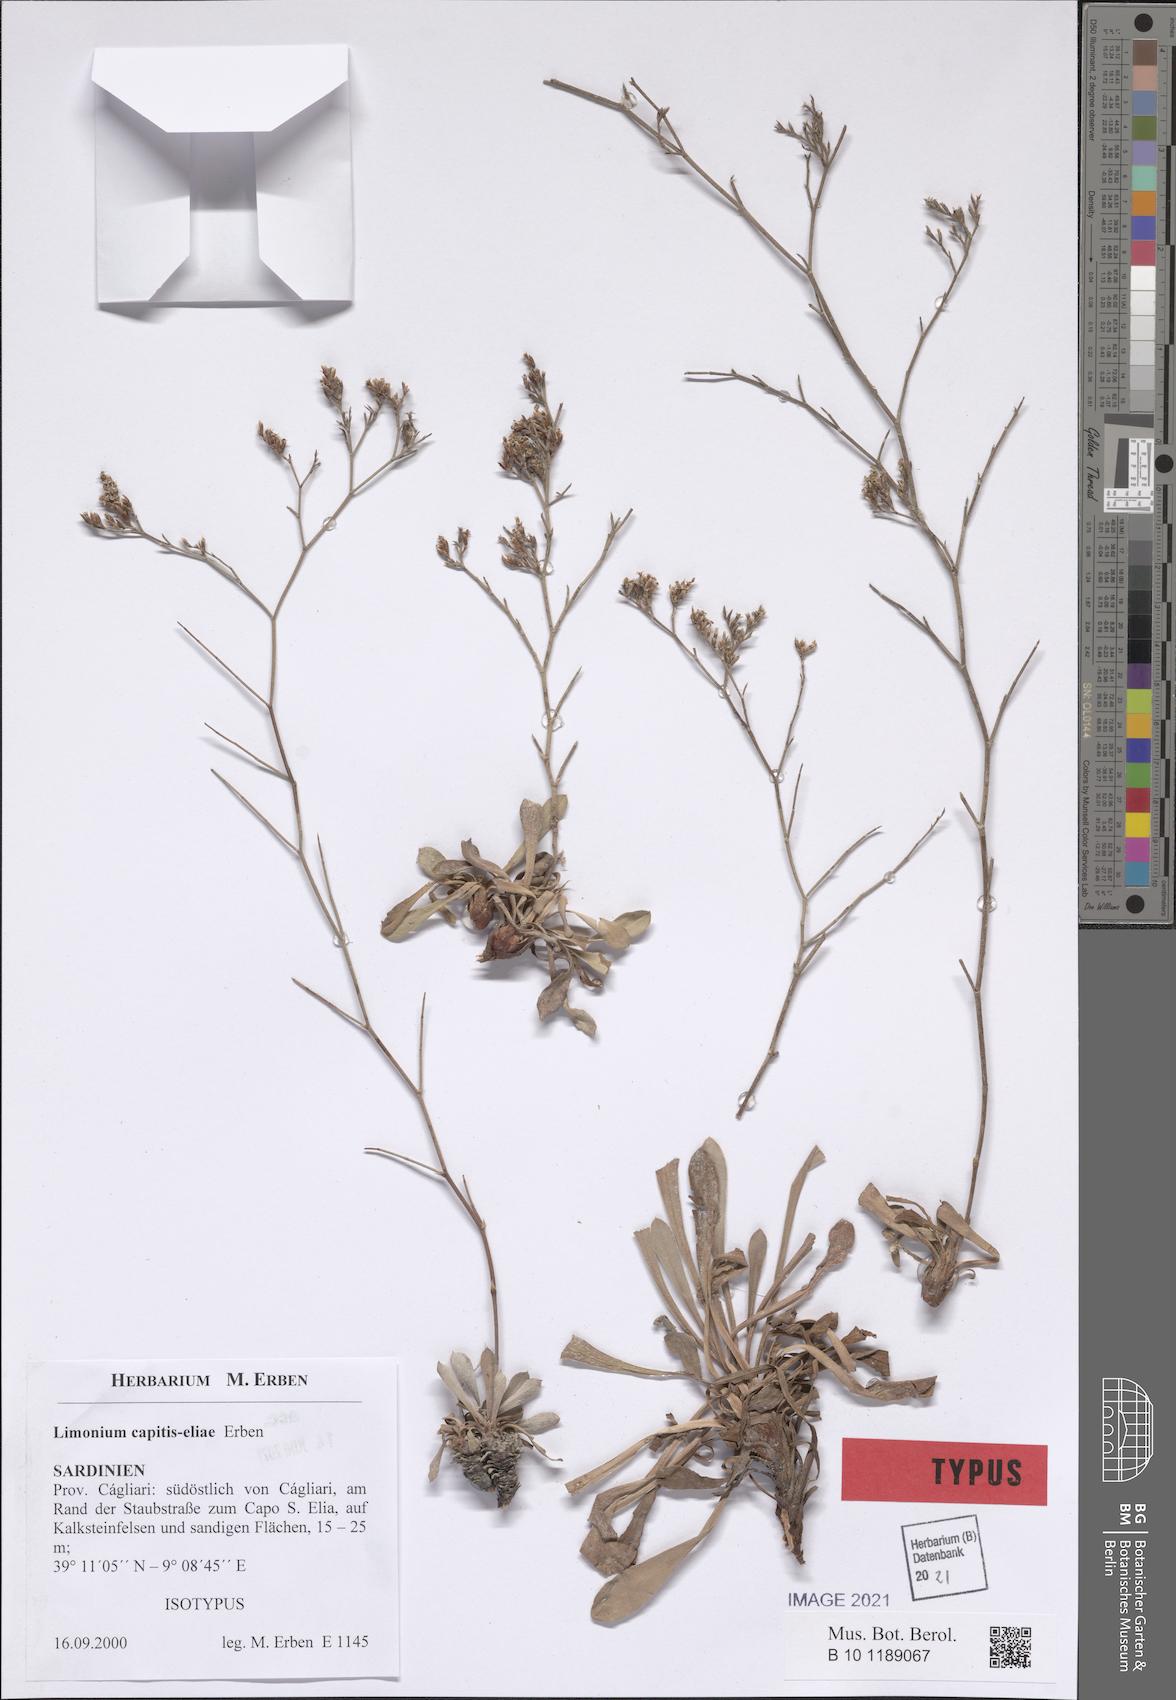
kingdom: Plantae
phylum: Tracheophyta
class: Magnoliopsida
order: Caryophyllales
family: Plumbaginaceae
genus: Limonium
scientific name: Limonium capitis-eliae
